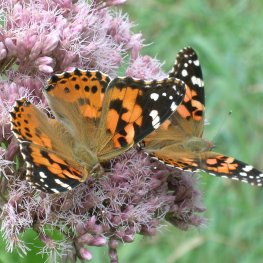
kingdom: Animalia
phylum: Arthropoda
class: Insecta
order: Lepidoptera
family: Nymphalidae
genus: Vanessa
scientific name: Vanessa cardui
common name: Painted Lady
